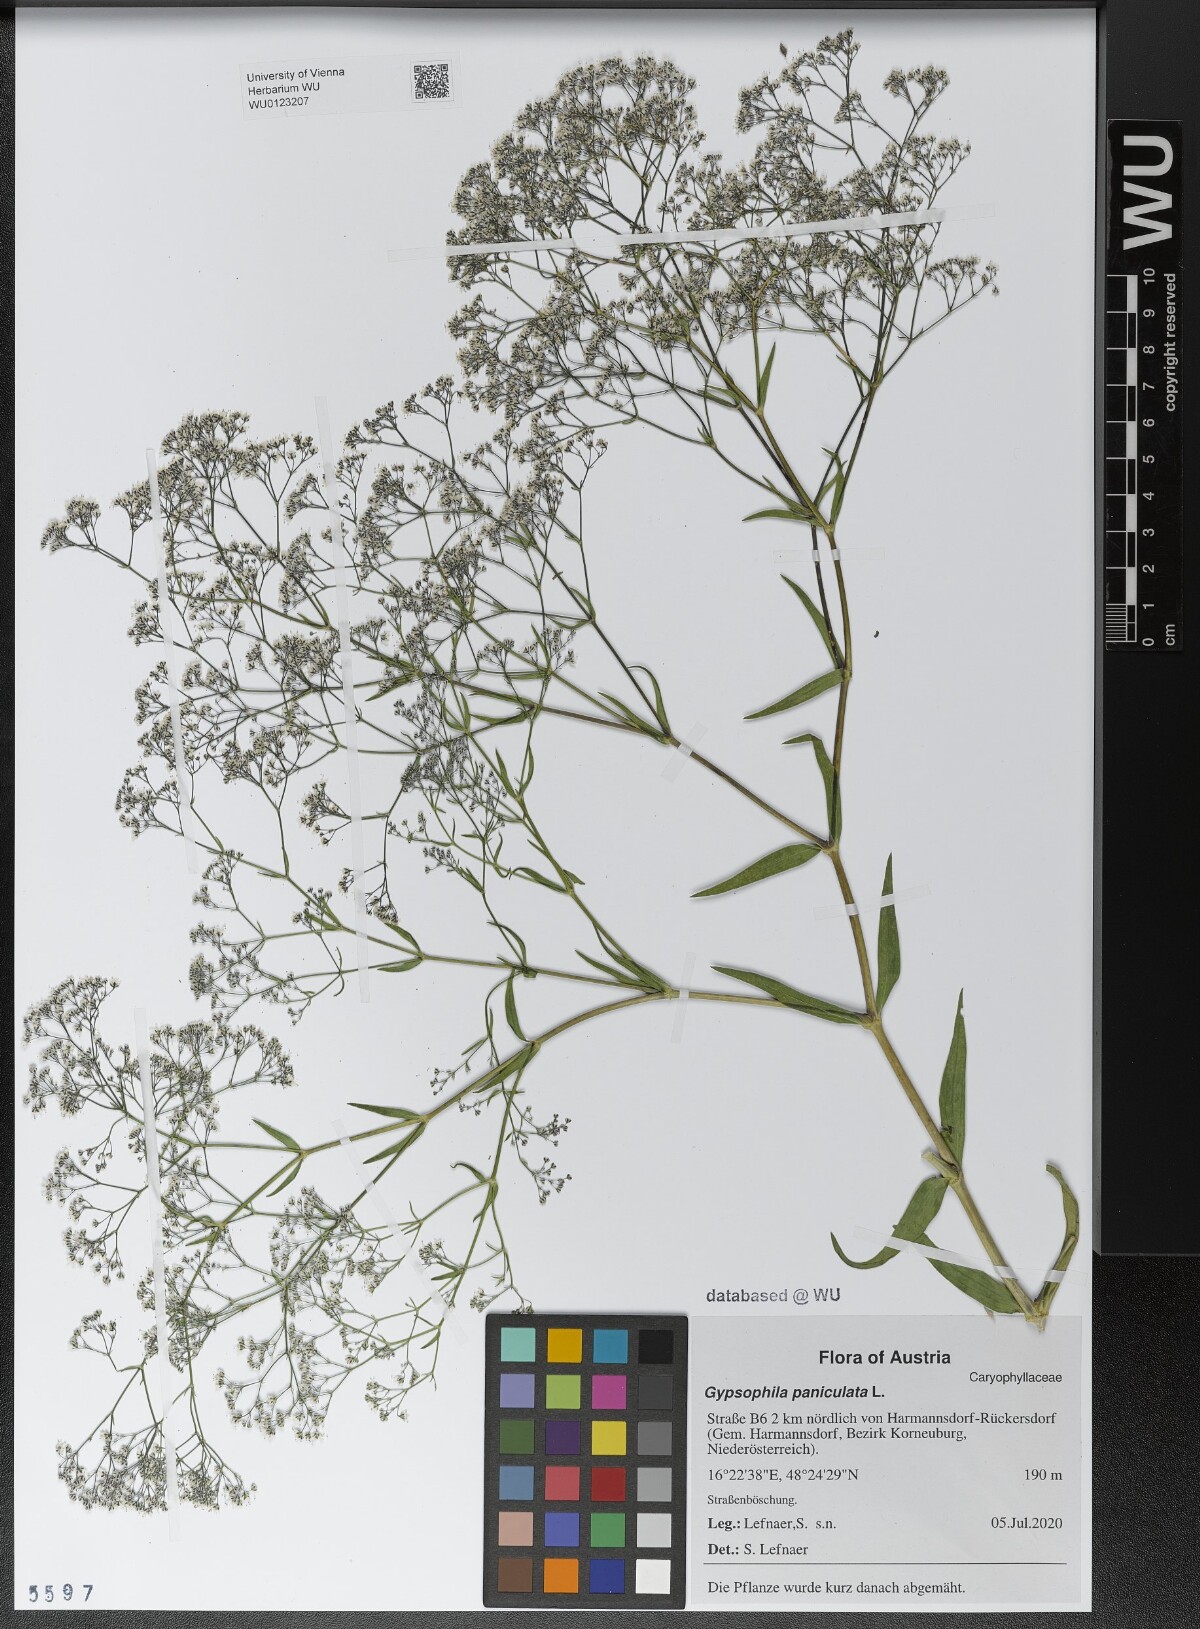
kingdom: Plantae
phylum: Tracheophyta
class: Magnoliopsida
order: Caryophyllales
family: Caryophyllaceae
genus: Gypsophila
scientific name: Gypsophila paniculata
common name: Baby's-breath
